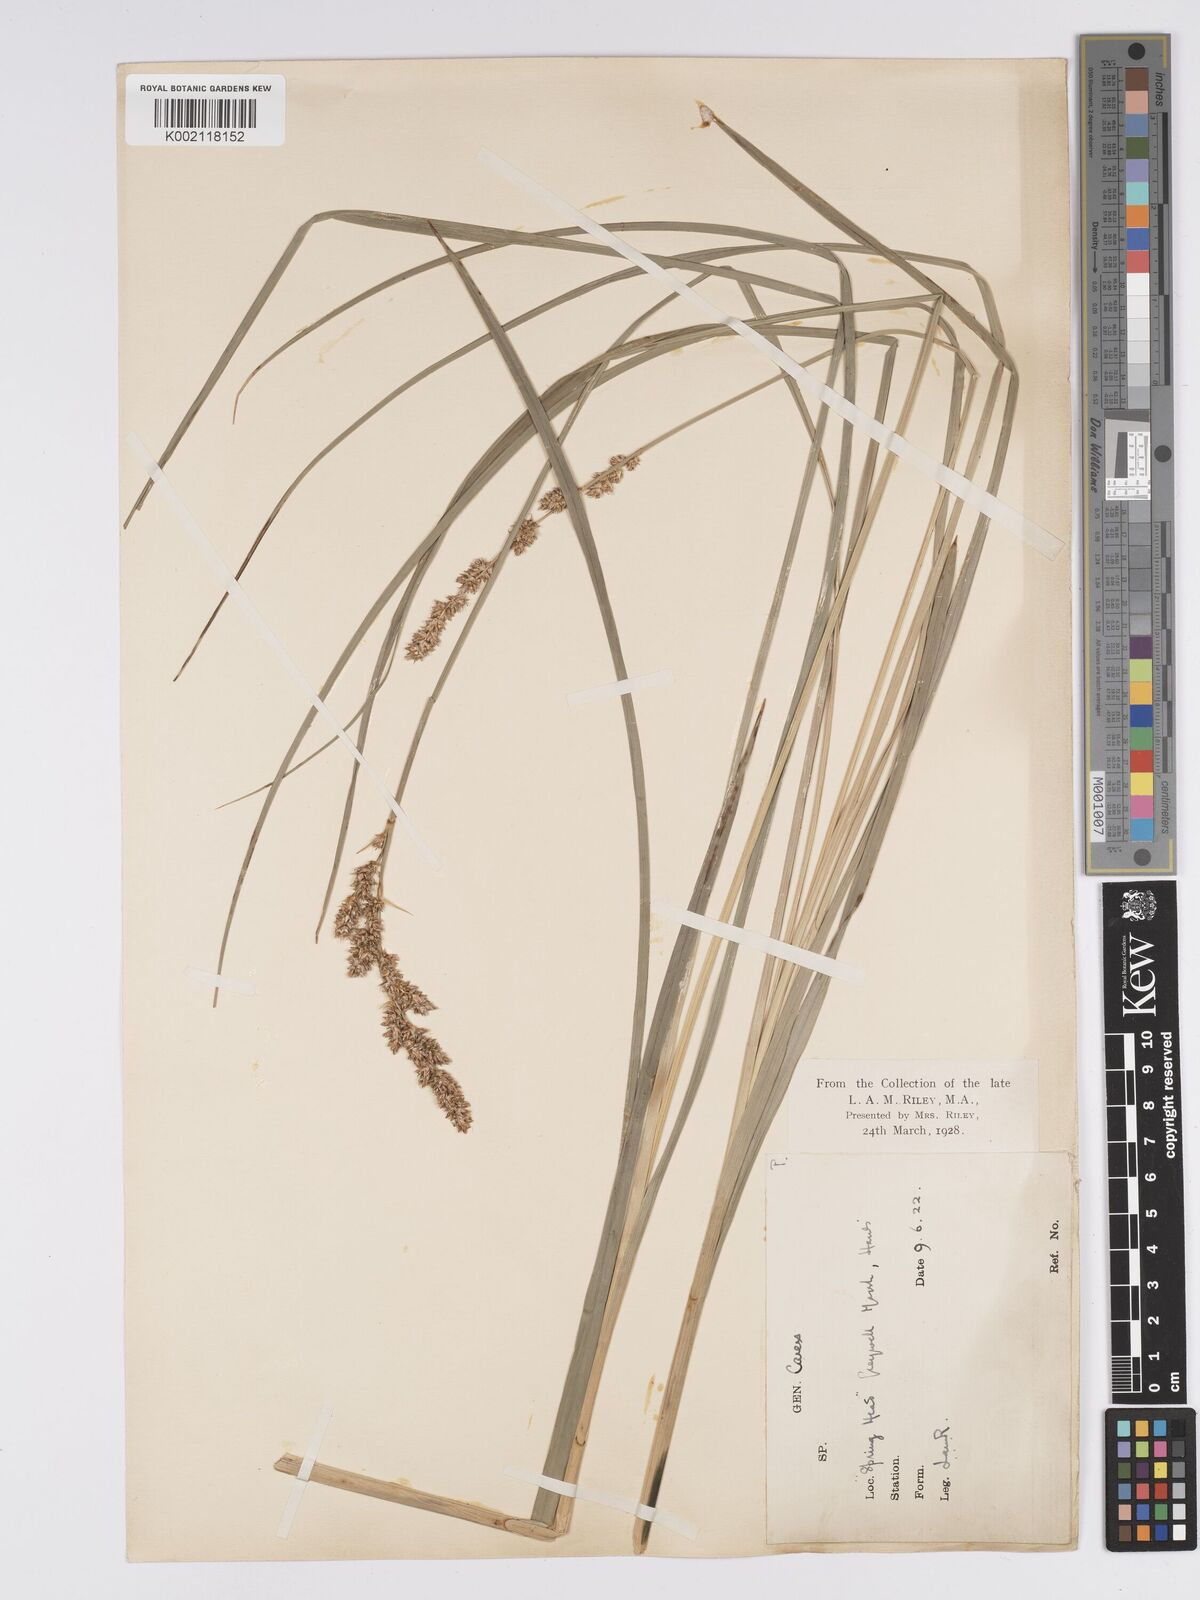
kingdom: Plantae
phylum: Tracheophyta
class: Liliopsida
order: Poales
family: Cyperaceae
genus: Carex
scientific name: Carex paniculata
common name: Greater tussock-sedge
